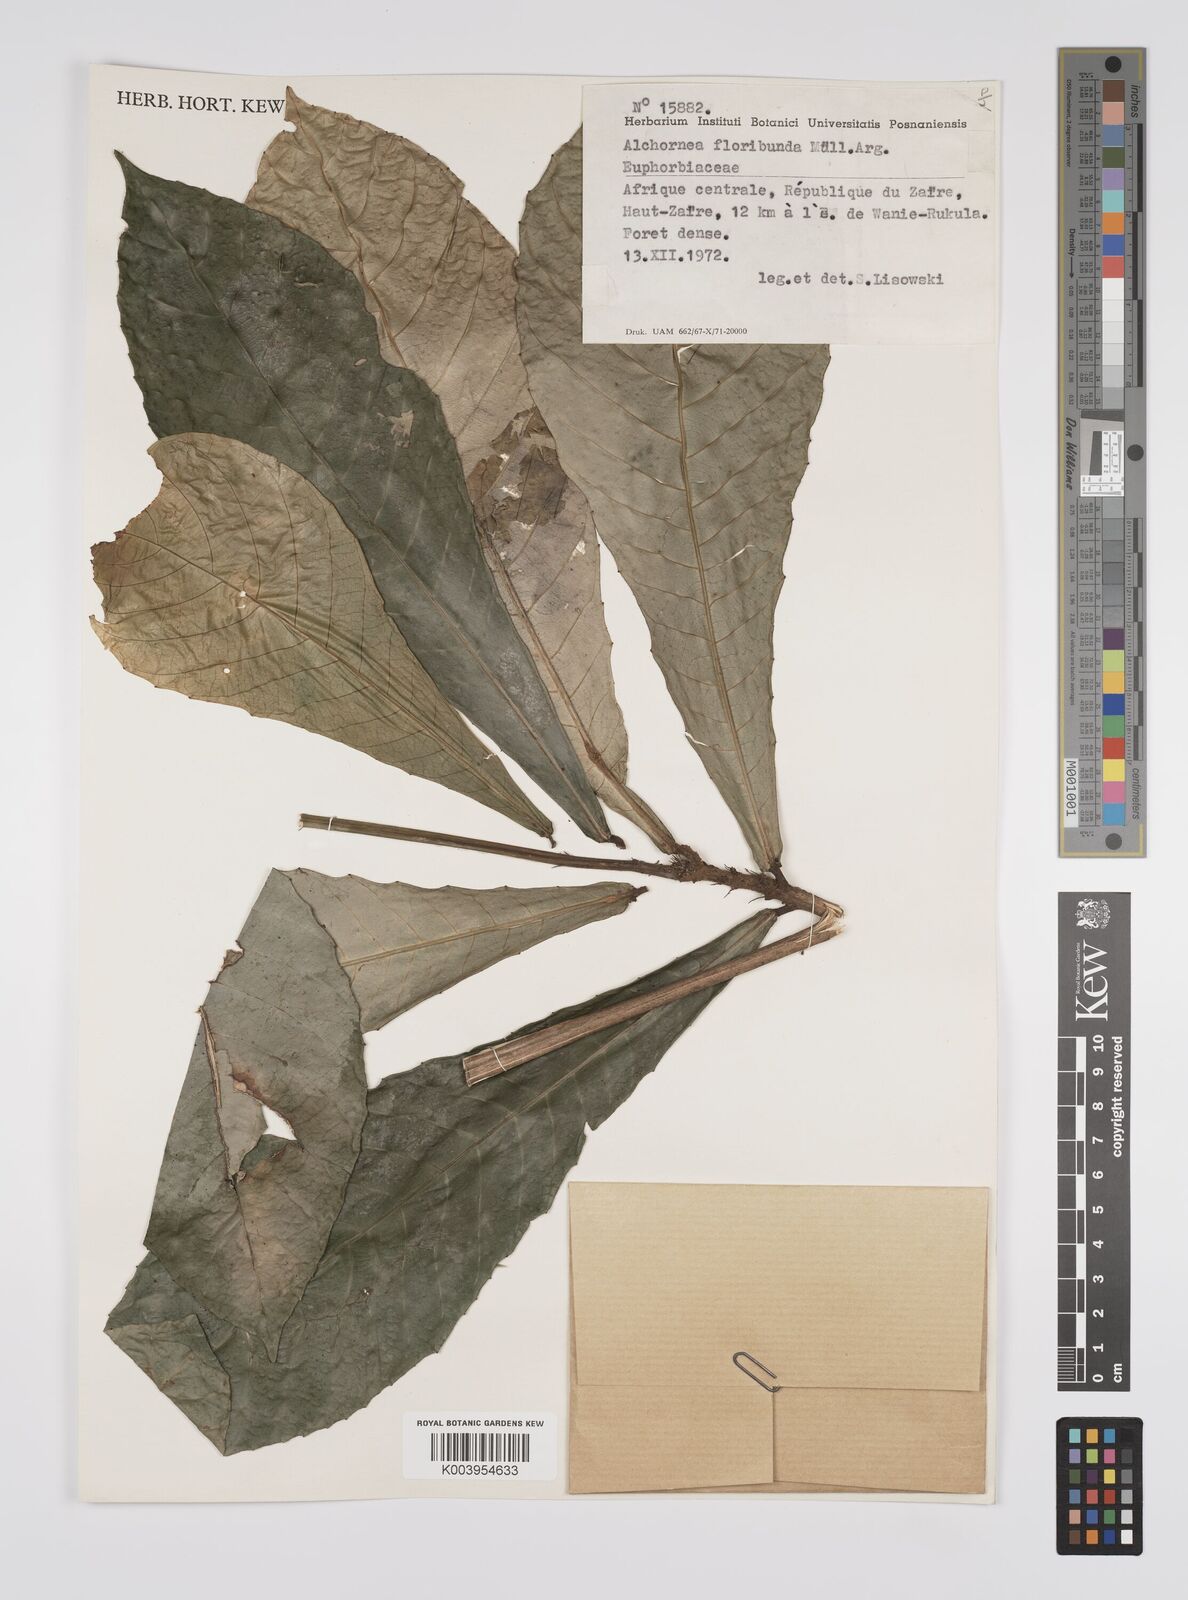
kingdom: Plantae
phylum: Tracheophyta
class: Magnoliopsida
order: Malpighiales
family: Euphorbiaceae
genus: Alchornea
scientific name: Alchornea floribunda
